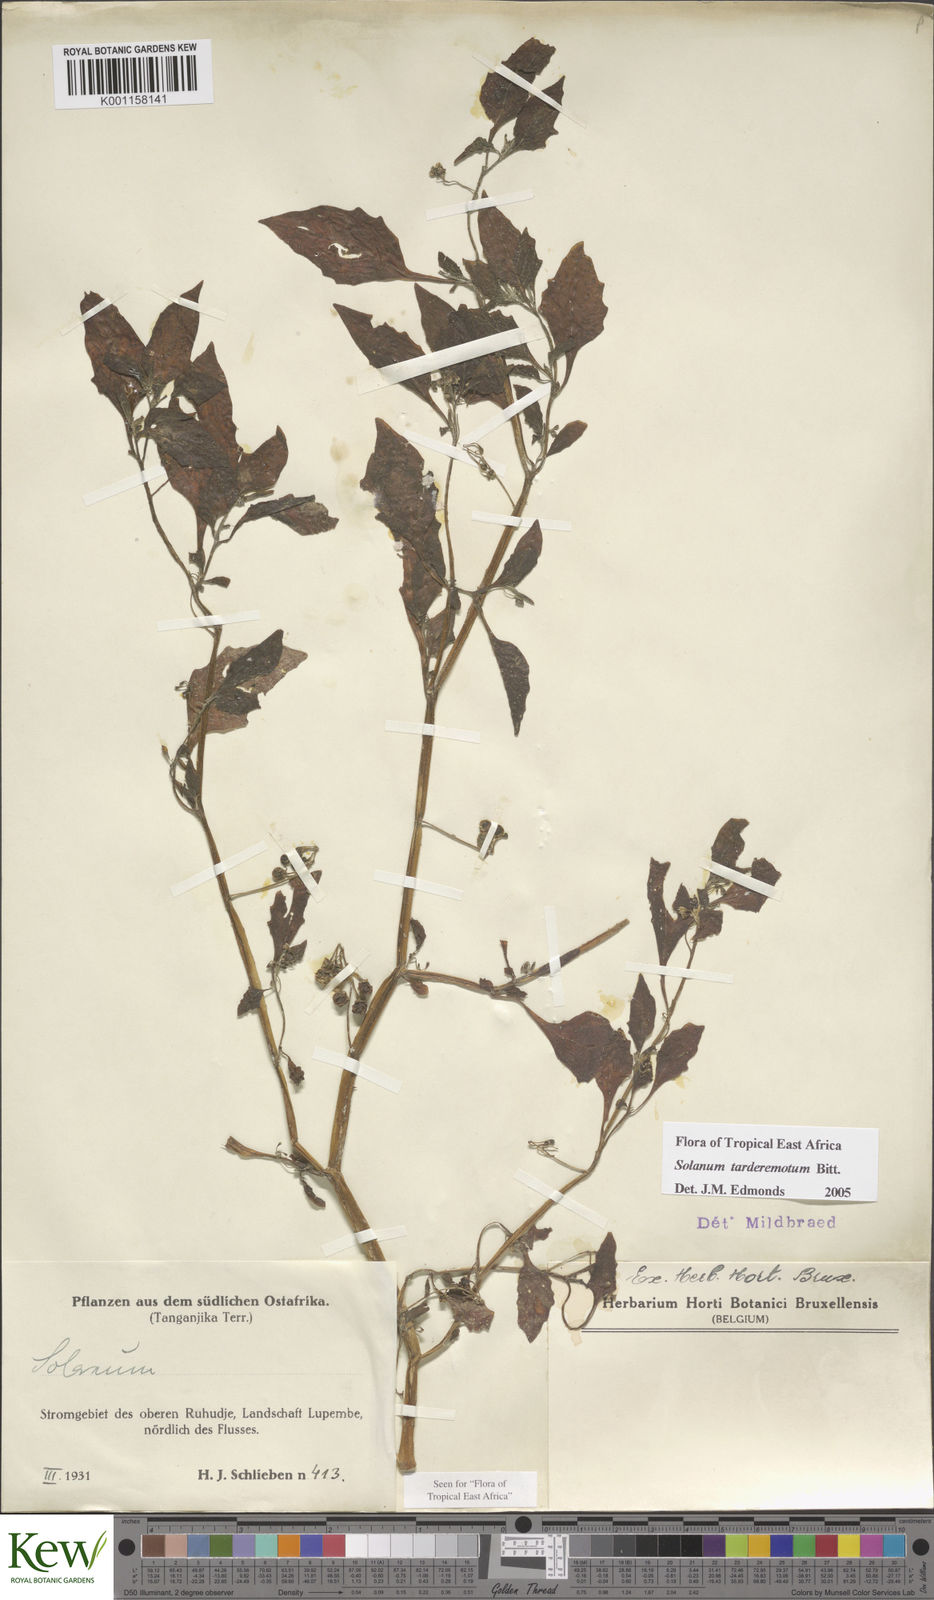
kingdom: Plantae
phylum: Tracheophyta
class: Magnoliopsida
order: Solanales
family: Solanaceae
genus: Solanum
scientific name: Solanum tarderemotum
